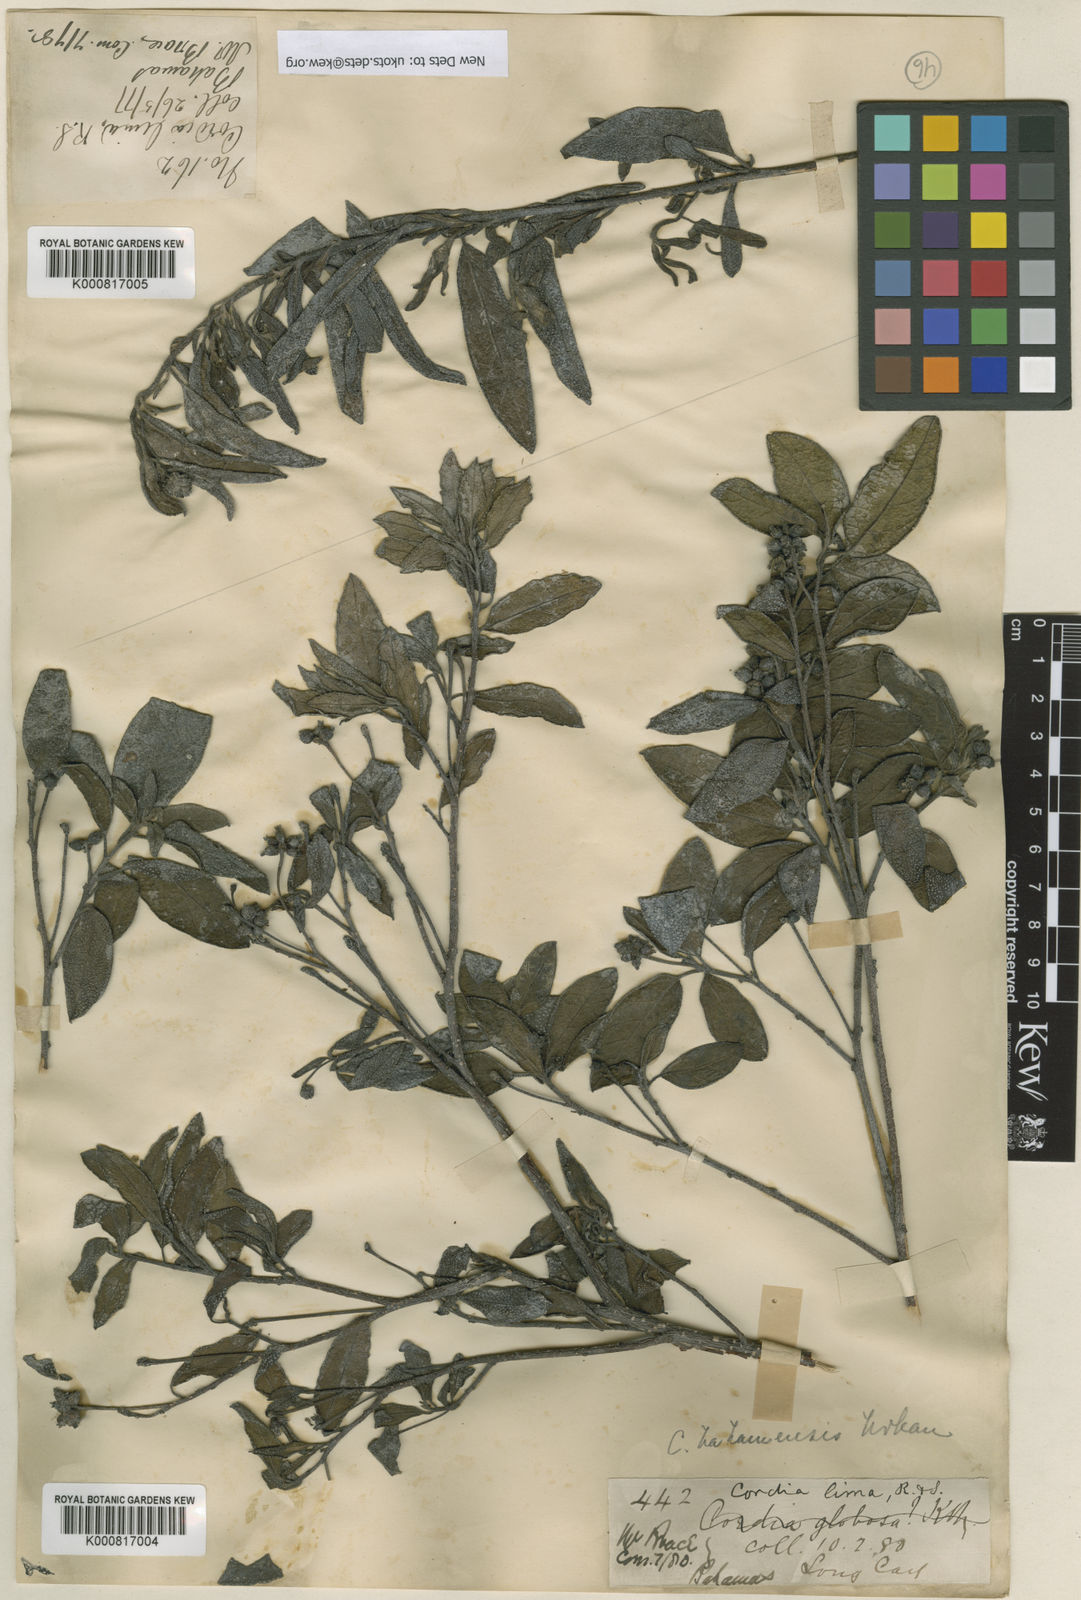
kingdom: Plantae
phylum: Tracheophyta
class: Magnoliopsida
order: Boraginales
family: Cordiaceae
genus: Varronia
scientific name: Varronia bahamensis
